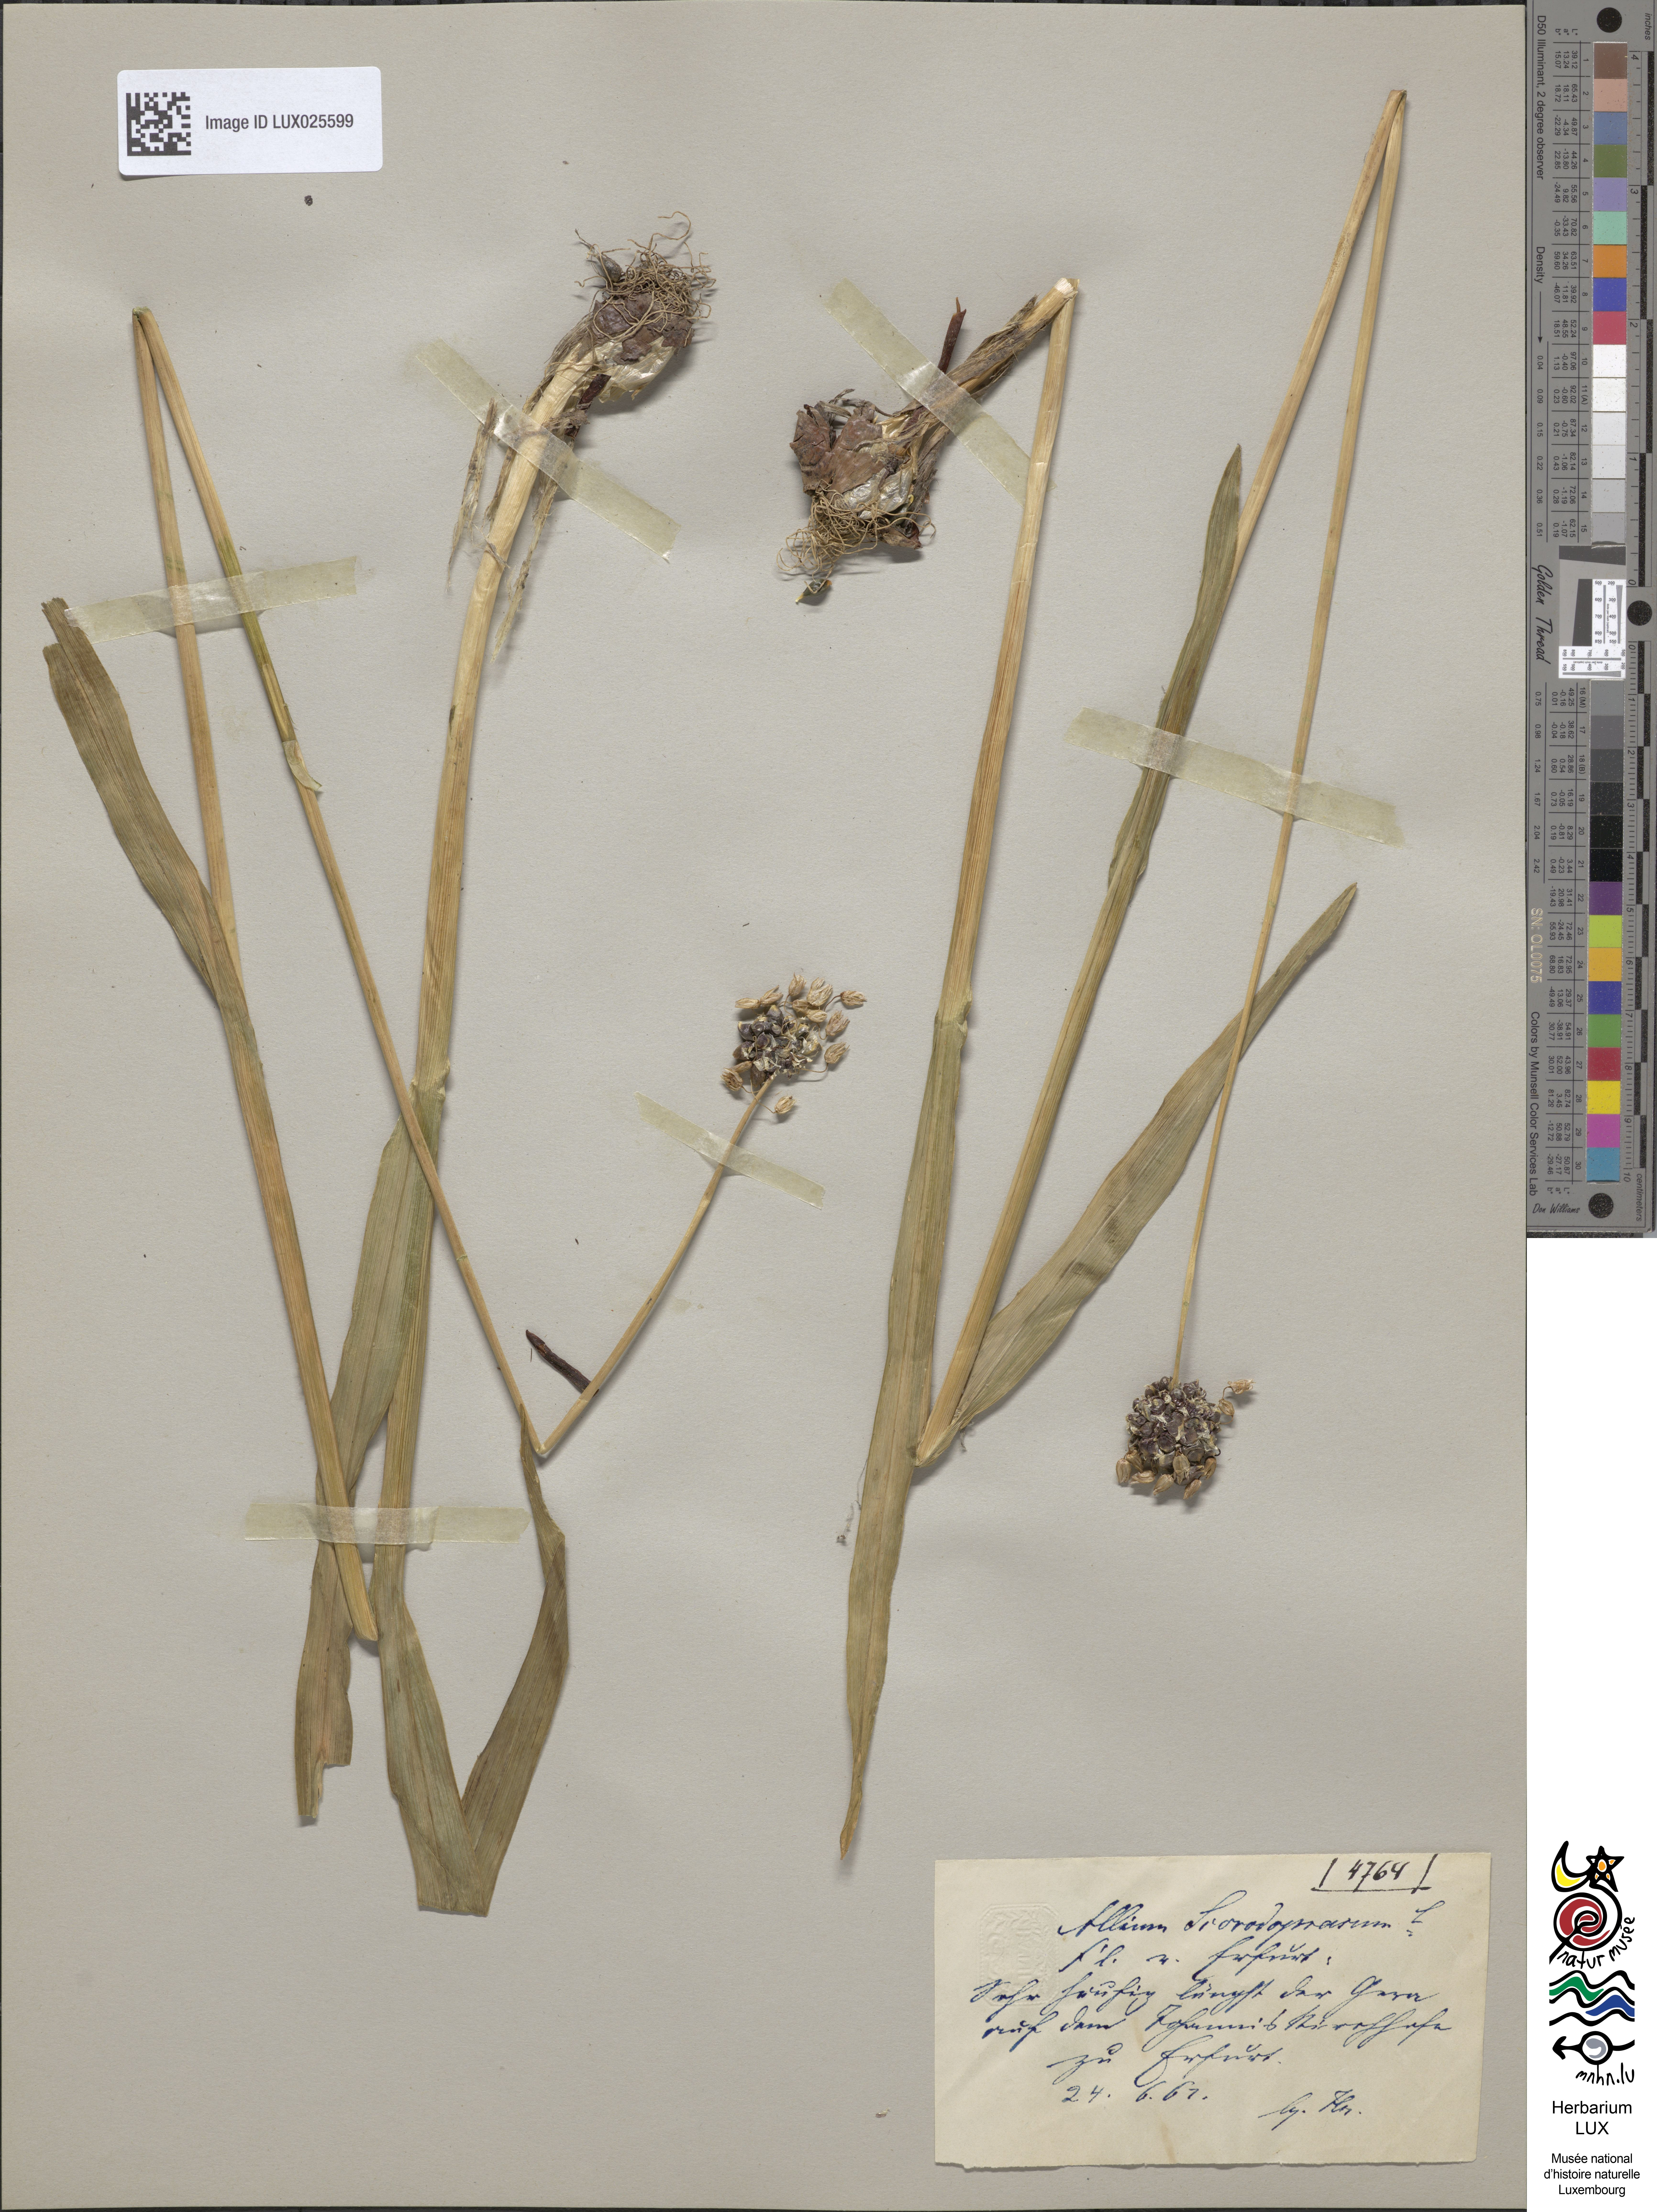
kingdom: Plantae
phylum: Tracheophyta
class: Liliopsida
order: Asparagales
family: Amaryllidaceae
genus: Allium
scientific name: Allium scorodoprasum
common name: Sand leek
